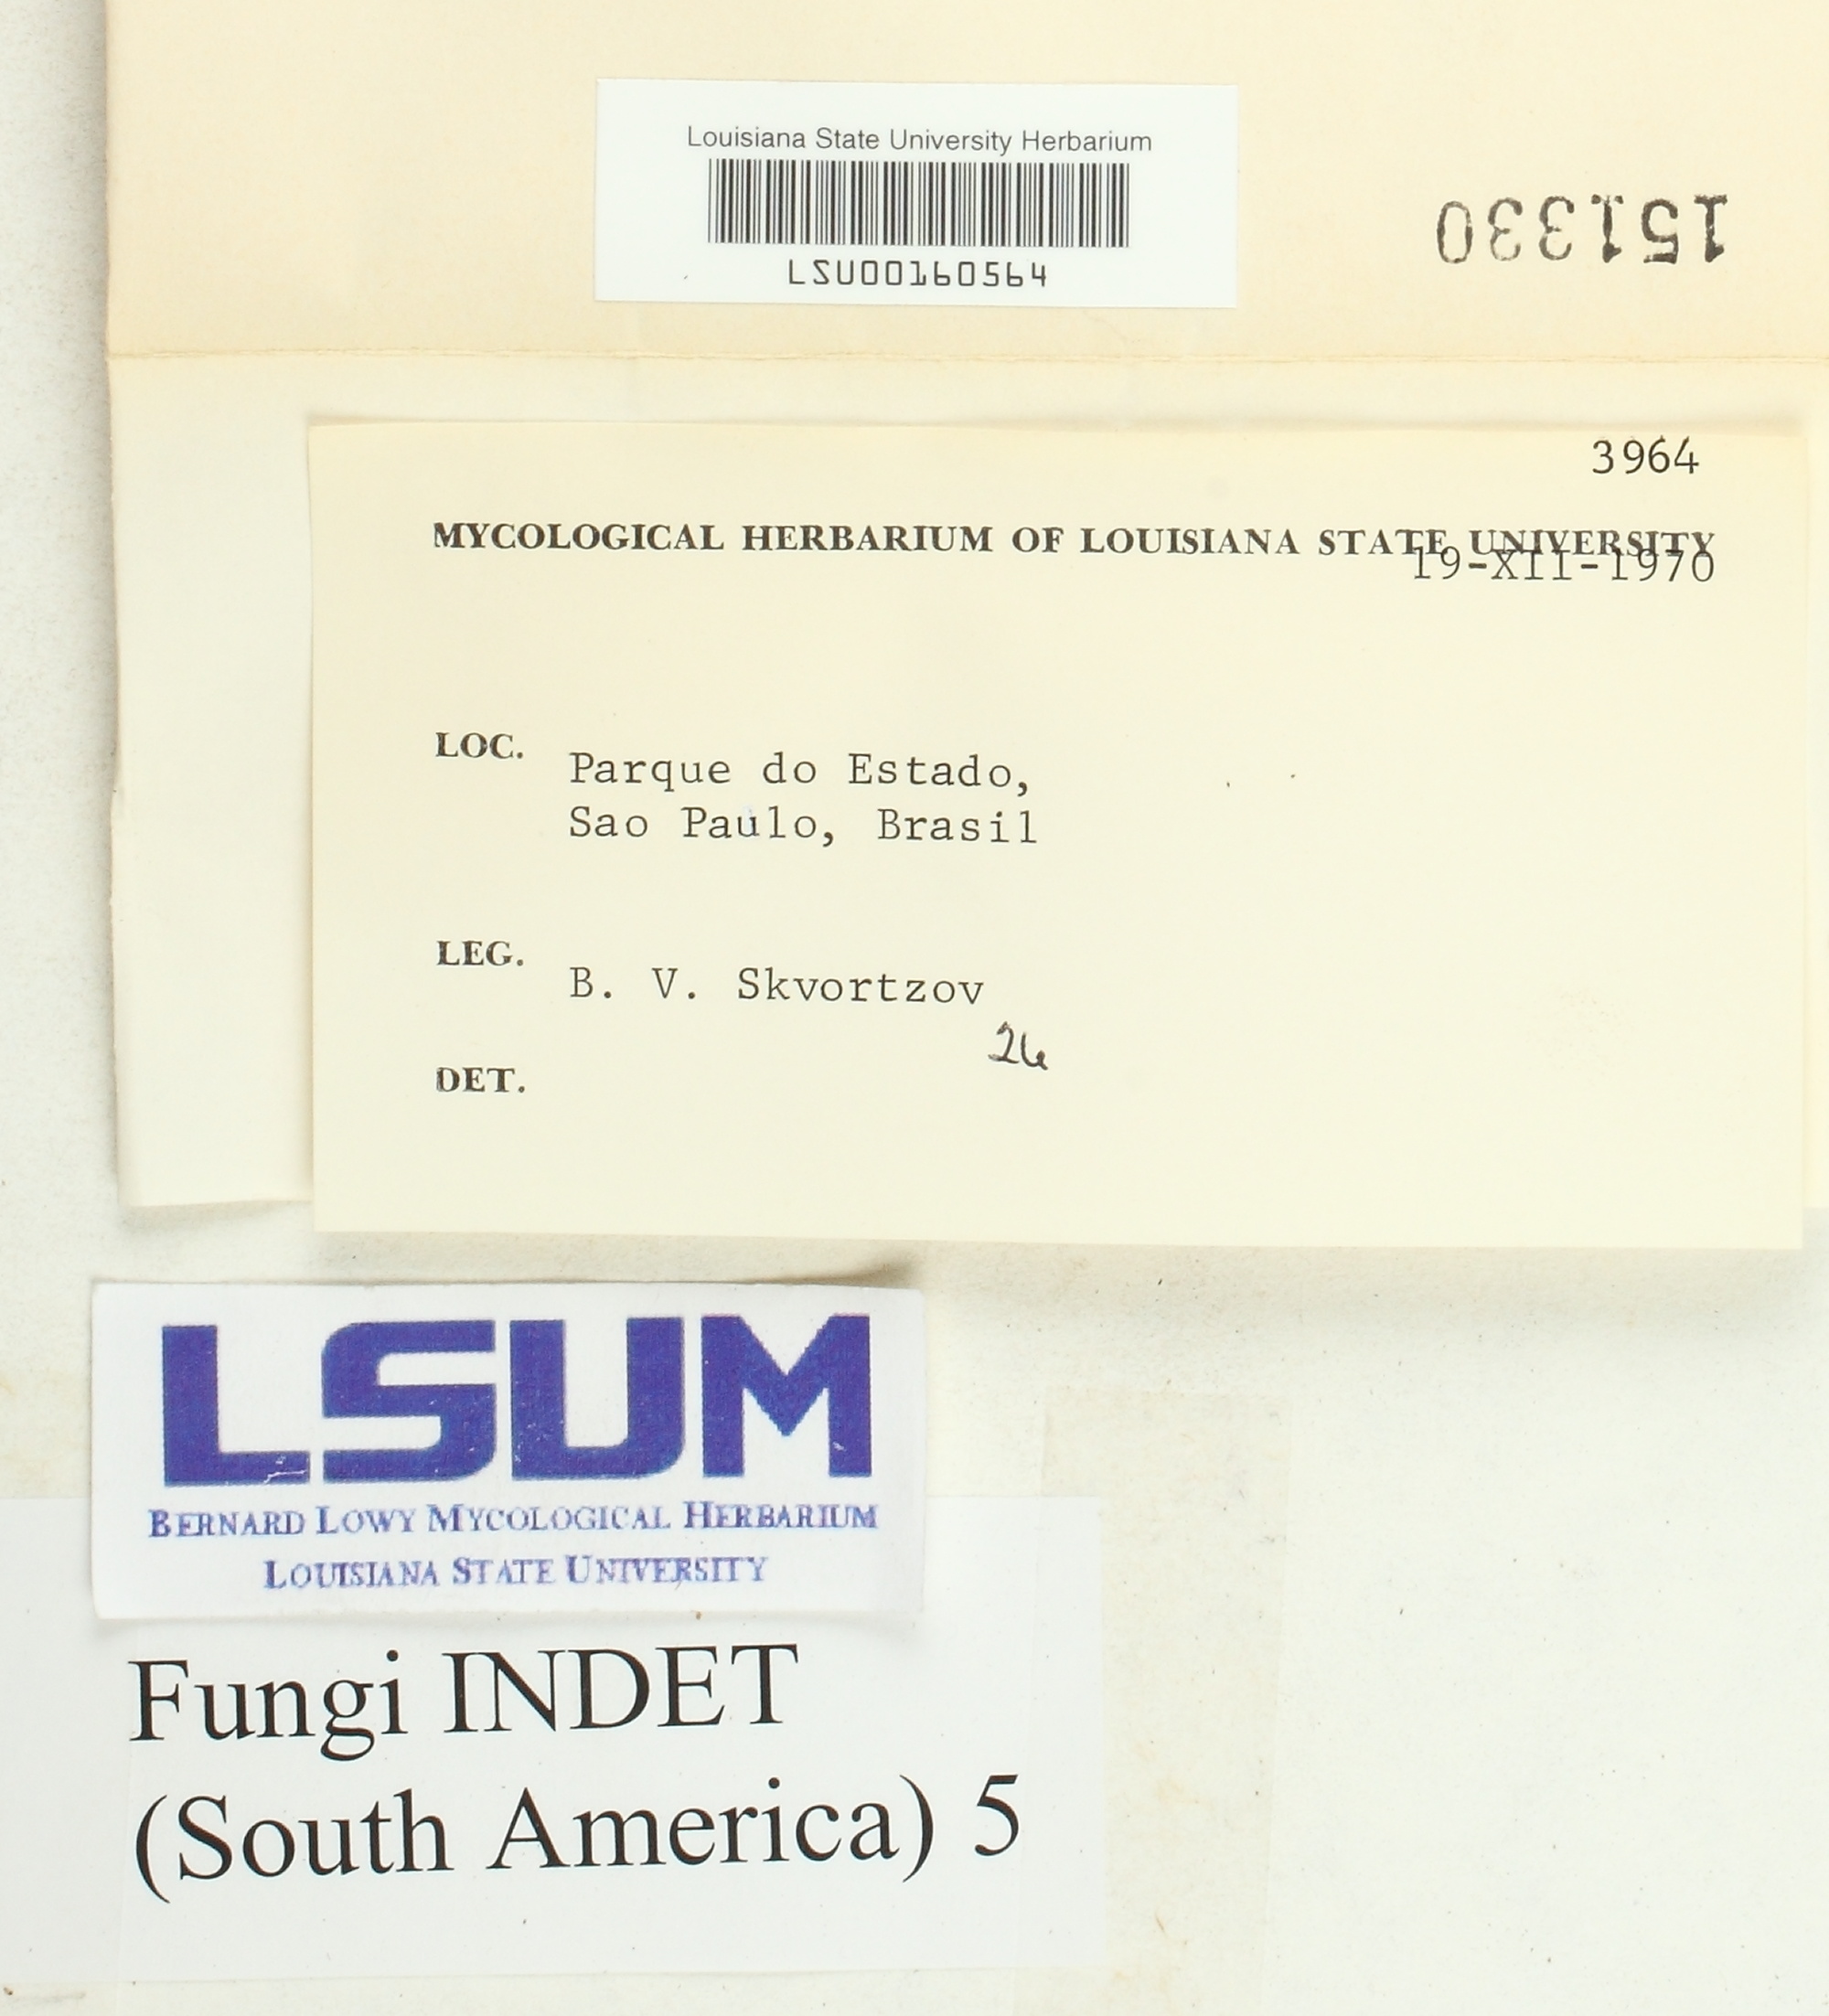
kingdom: Fungi
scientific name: Fungi
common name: Fungi
